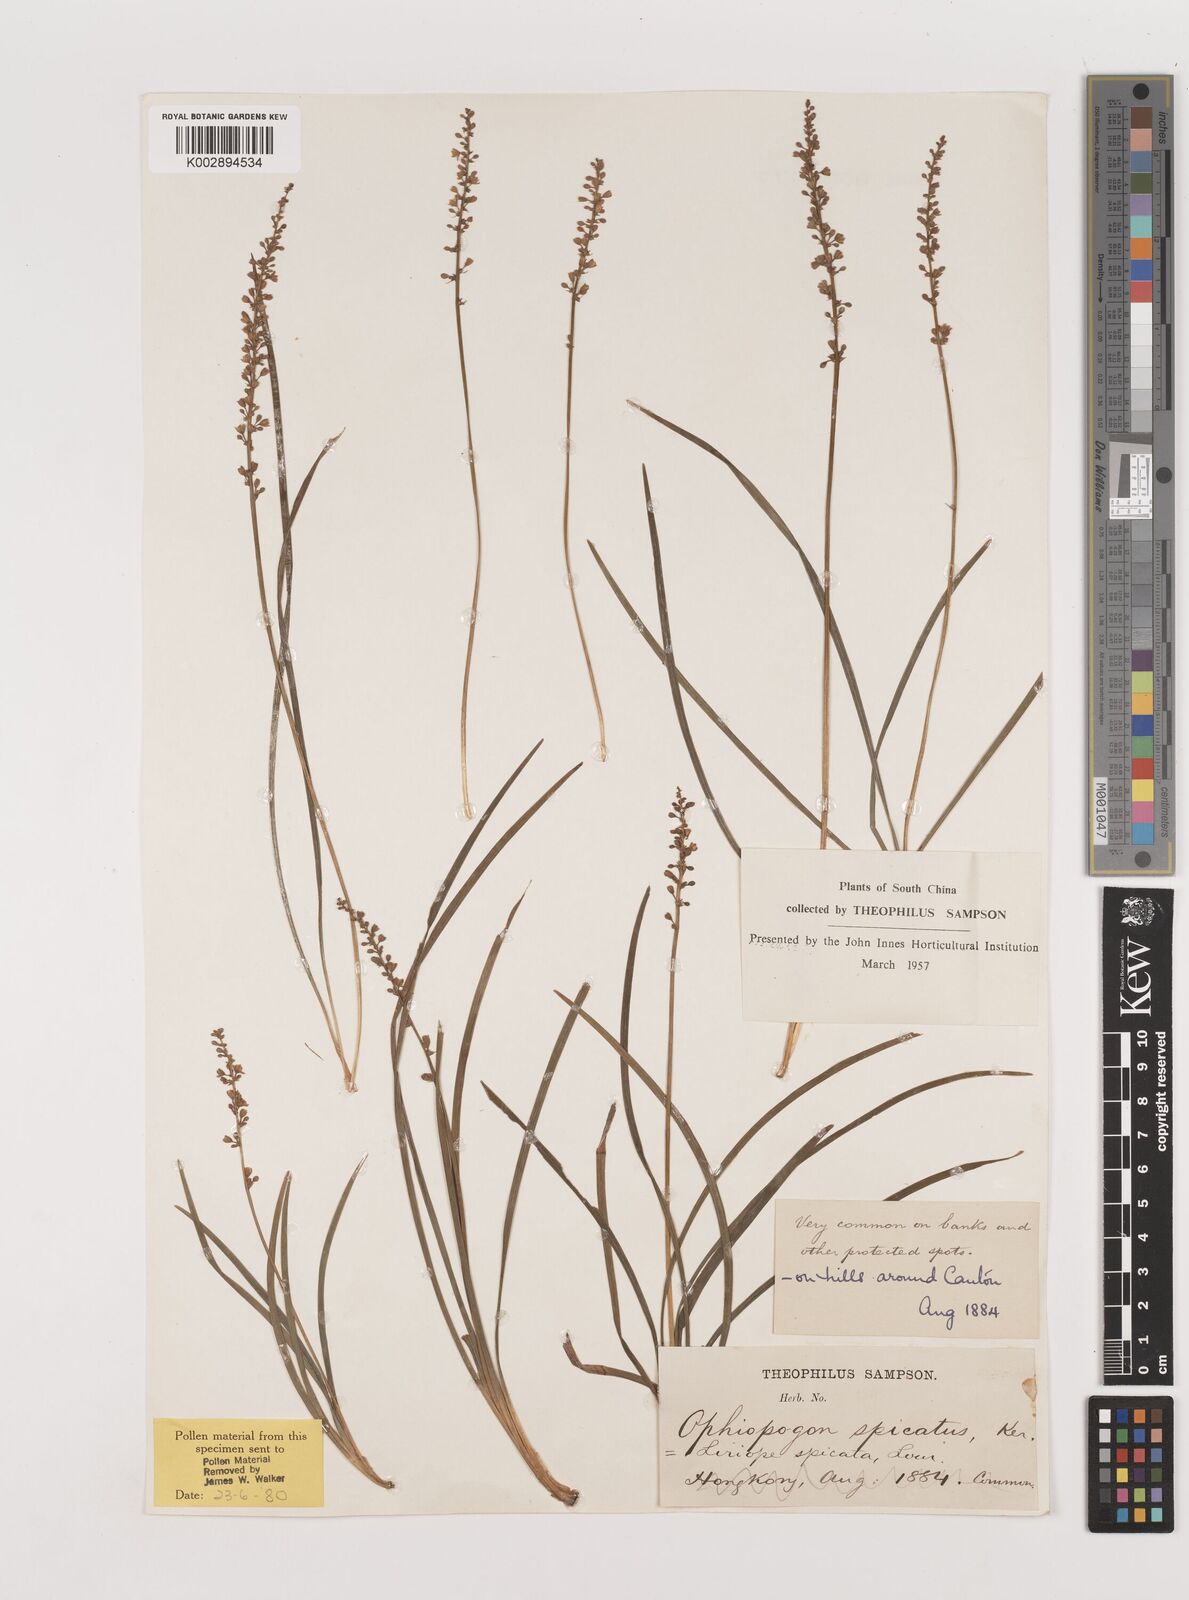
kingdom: Plantae
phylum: Tracheophyta
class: Liliopsida
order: Asparagales
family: Asparagaceae
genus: Liriope
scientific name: Liriope spicata
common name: Creeping liriope
